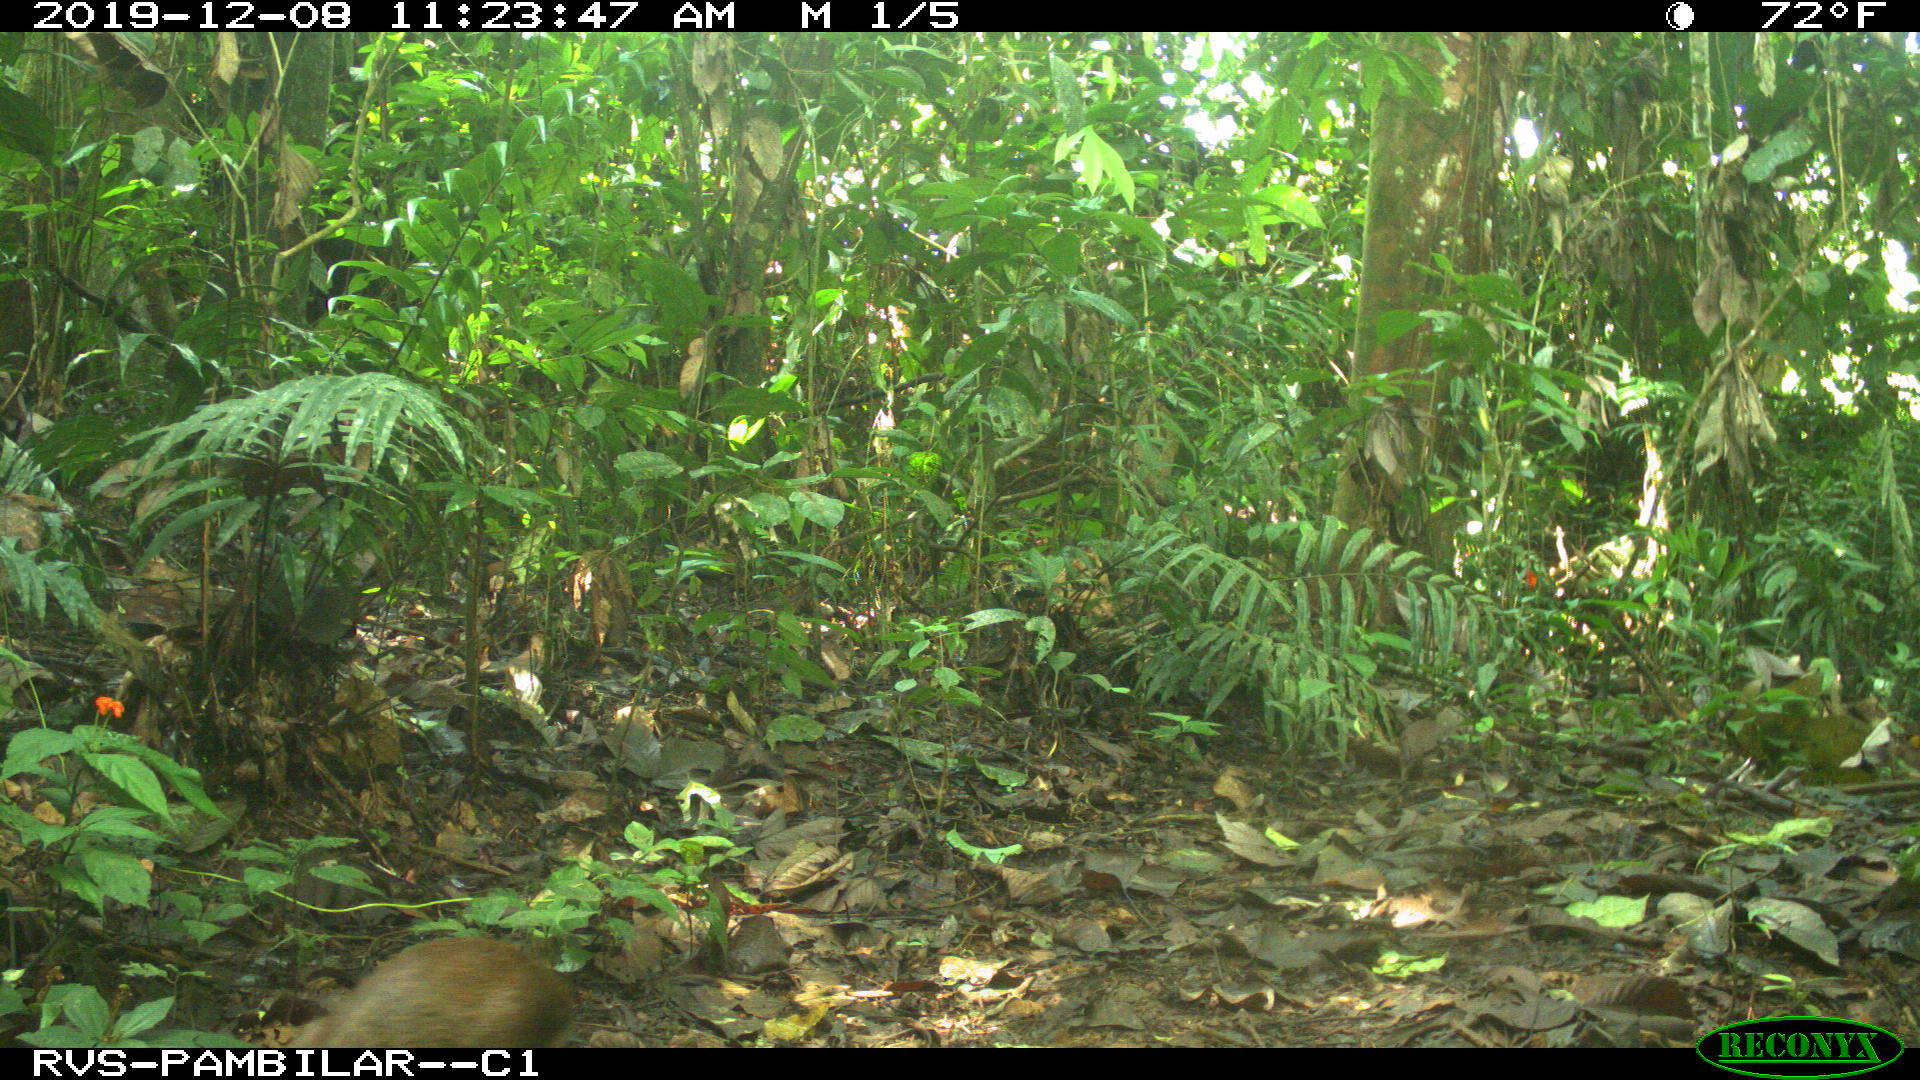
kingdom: Animalia
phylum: Chordata
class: Mammalia
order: Rodentia
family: Dasyproctidae
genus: Dasyprocta
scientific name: Dasyprocta punctata
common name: Central american agouti
